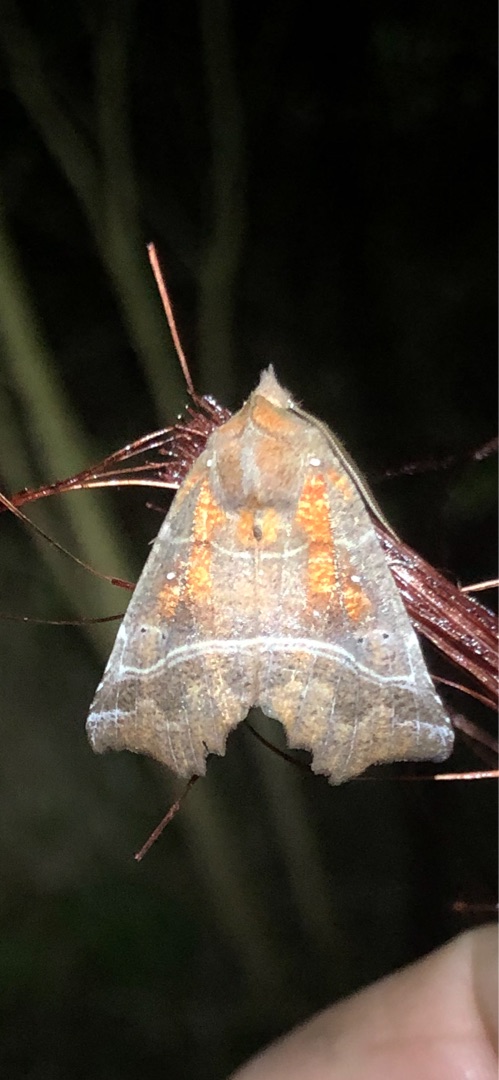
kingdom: Animalia
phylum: Arthropoda
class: Insecta
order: Lepidoptera
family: Erebidae
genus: Scoliopteryx
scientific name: Scoliopteryx libatrix
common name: Husmoderugle
